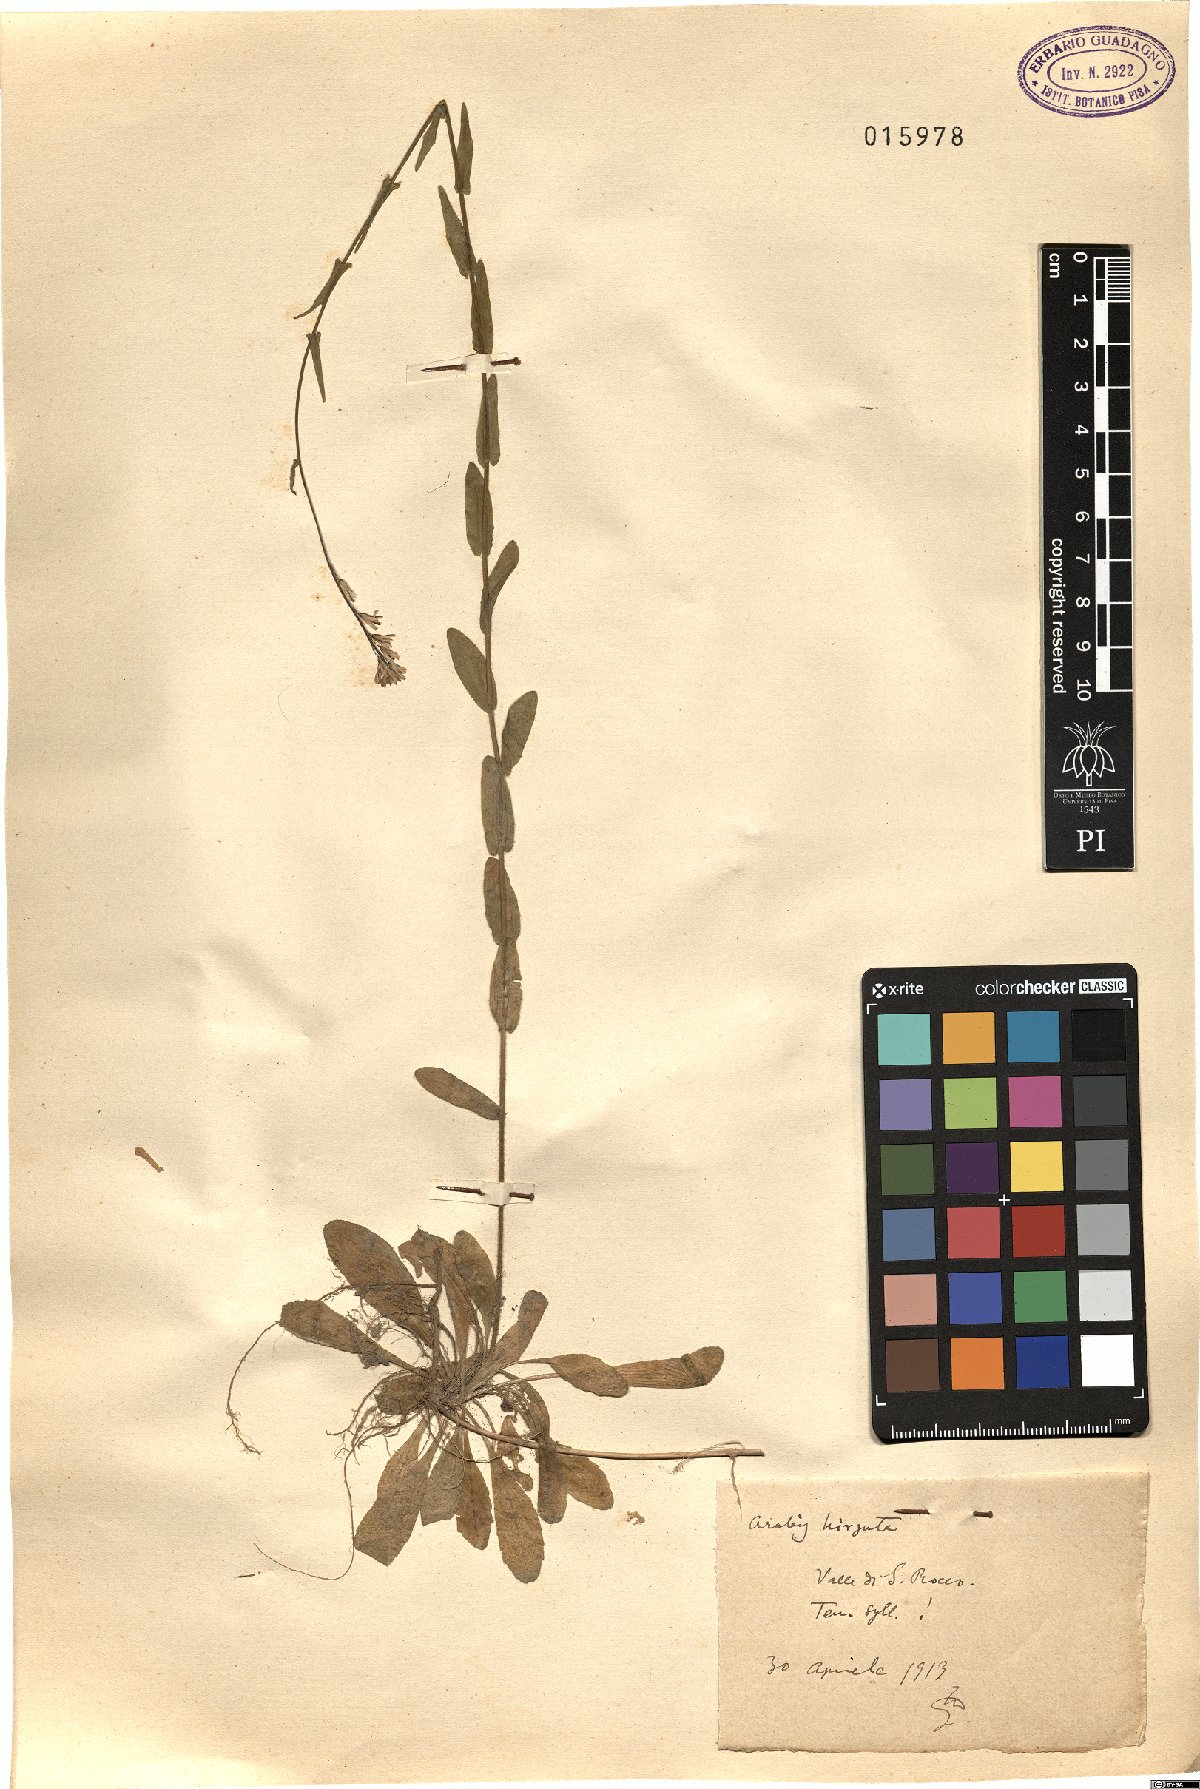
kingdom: Plantae
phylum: Tracheophyta
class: Magnoliopsida
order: Brassicales
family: Brassicaceae
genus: Arabis
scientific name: Arabis hirsuta
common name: Hairy rock-cress
